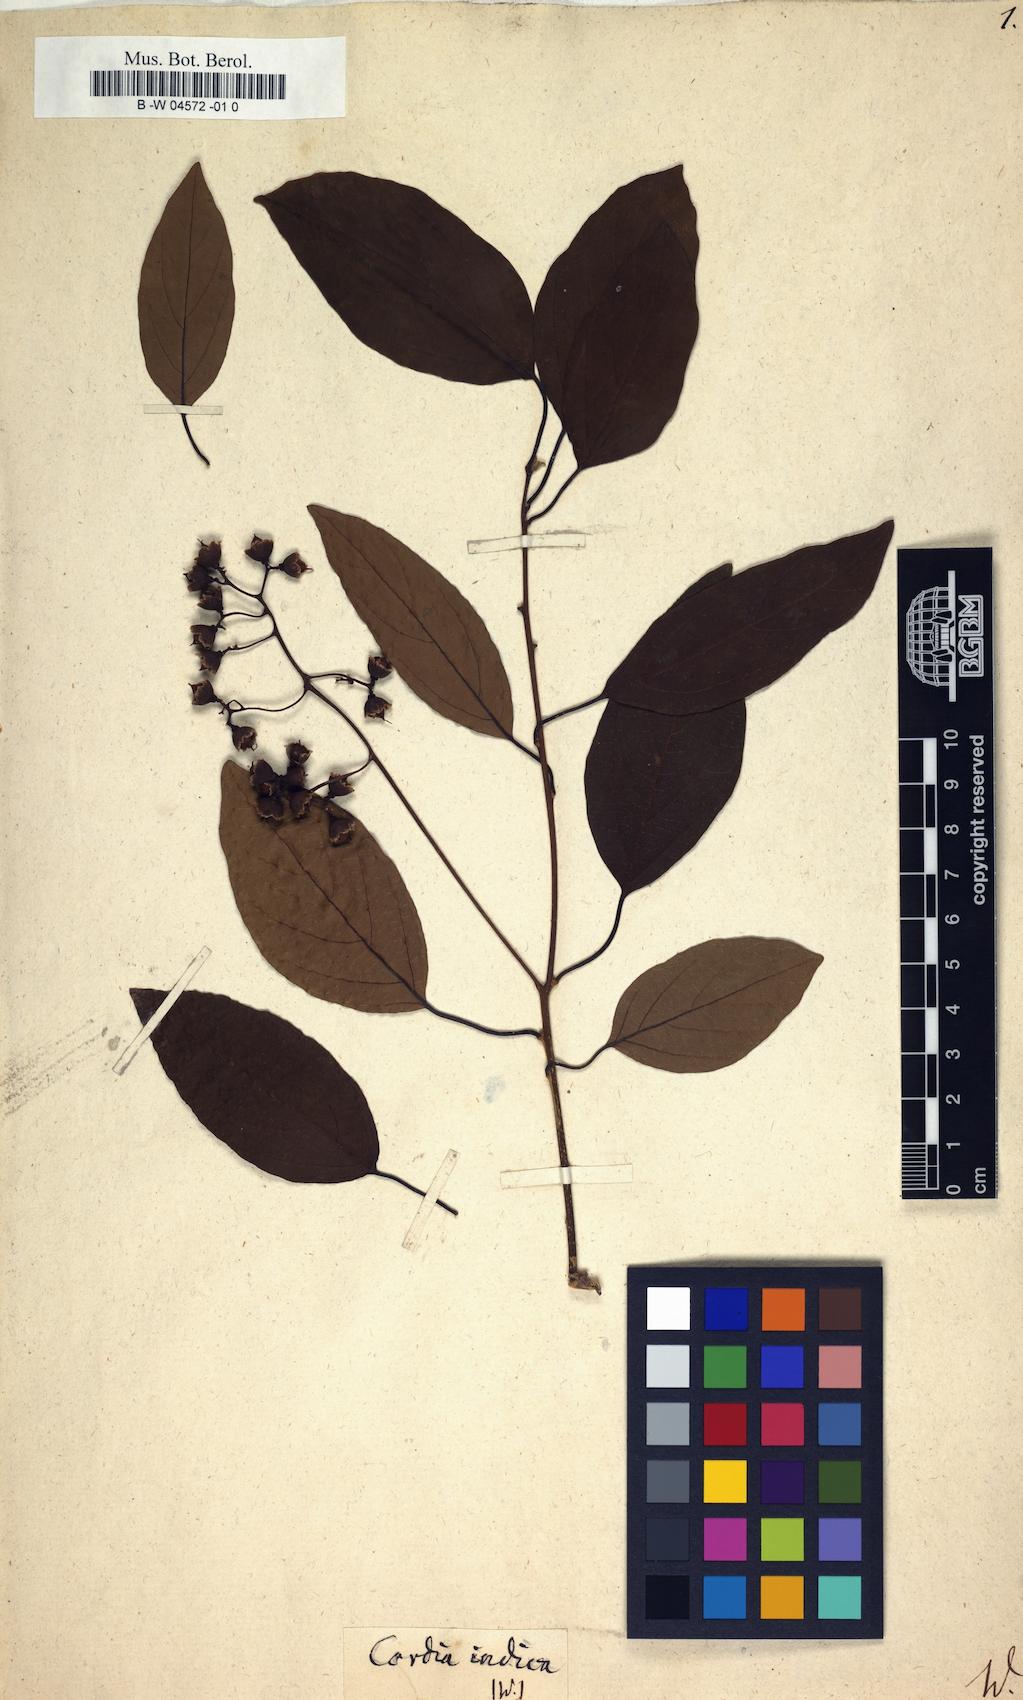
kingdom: Plantae
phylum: Tracheophyta
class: Magnoliopsida
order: Boraginales
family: Cordiaceae
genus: Cordia
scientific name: Cordia dichotoma
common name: Fragrant manjack
